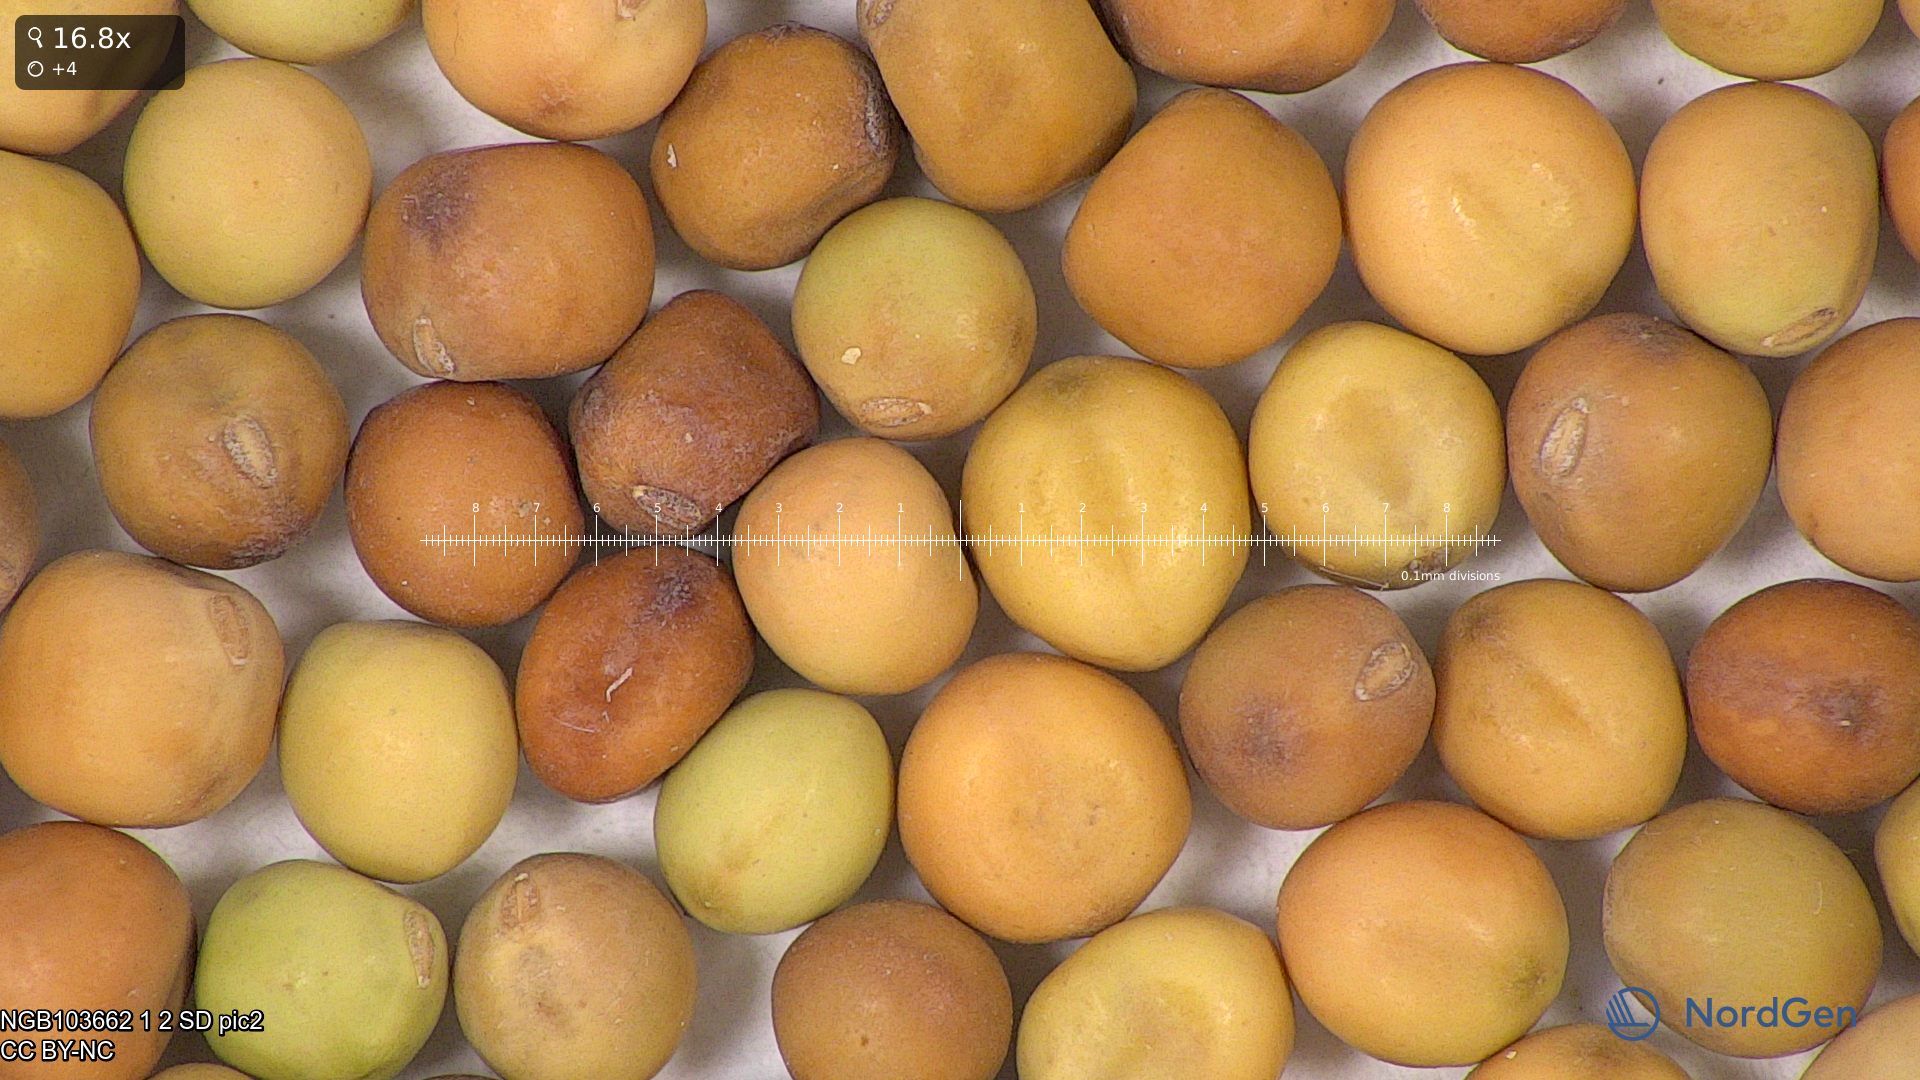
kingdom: Plantae
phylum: Tracheophyta
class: Magnoliopsida
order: Fabales
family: Fabaceae
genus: Lathyrus
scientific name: Lathyrus oleraceus
